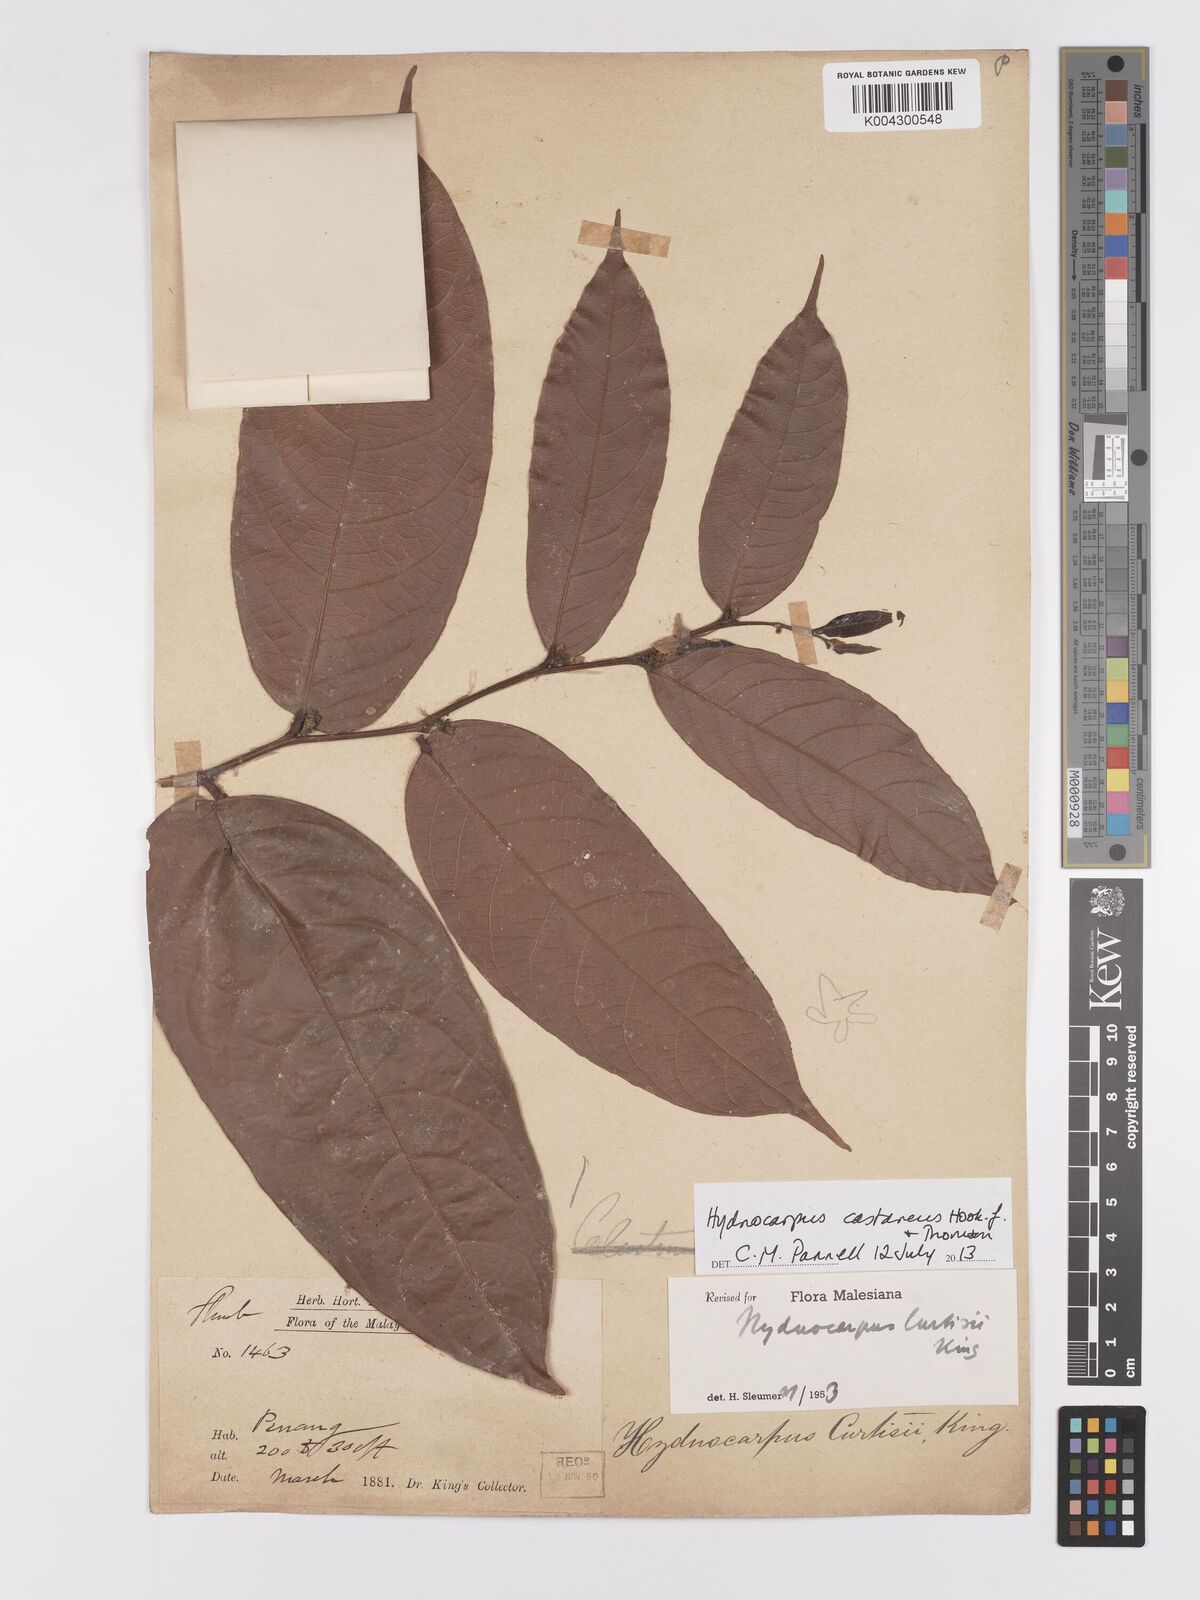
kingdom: Plantae
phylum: Tracheophyta
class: Magnoliopsida
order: Malpighiales
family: Achariaceae
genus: Hydnocarpus
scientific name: Hydnocarpus curtisii
